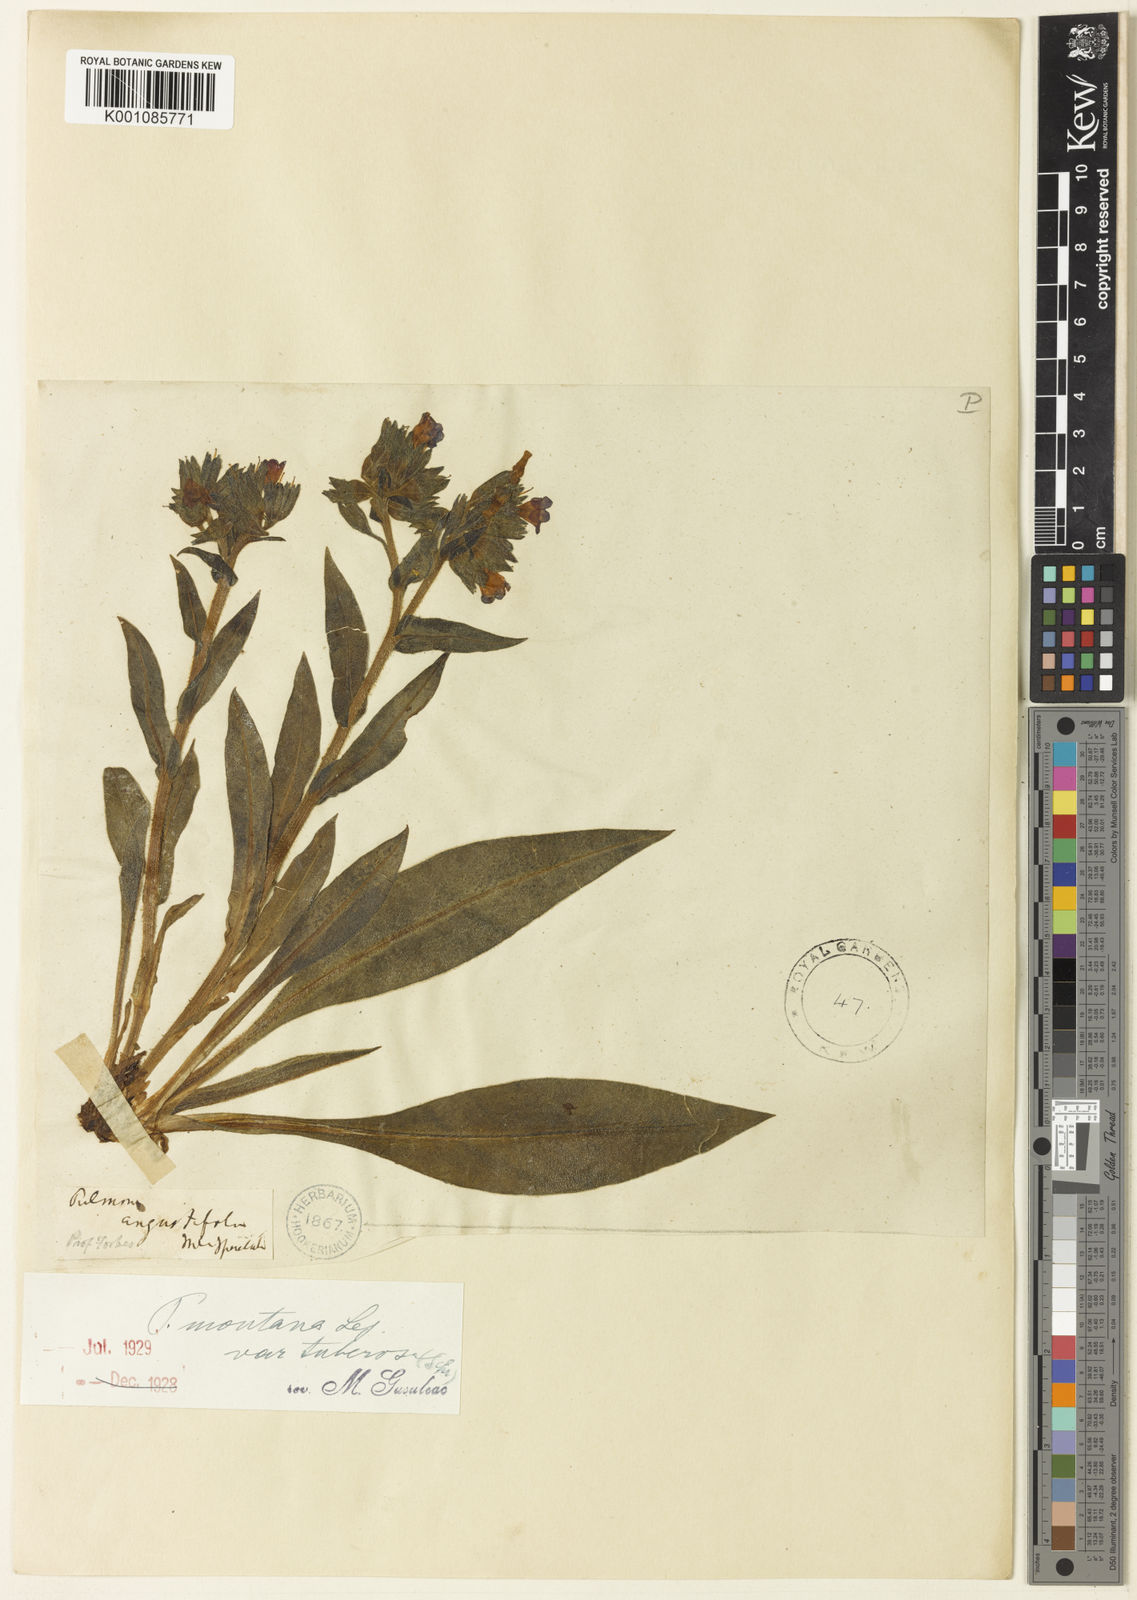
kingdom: Plantae
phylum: Tracheophyta
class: Magnoliopsida
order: Boraginales
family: Boraginaceae
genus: Pulmonaria
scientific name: Pulmonaria montana
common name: Mountain lungwort
